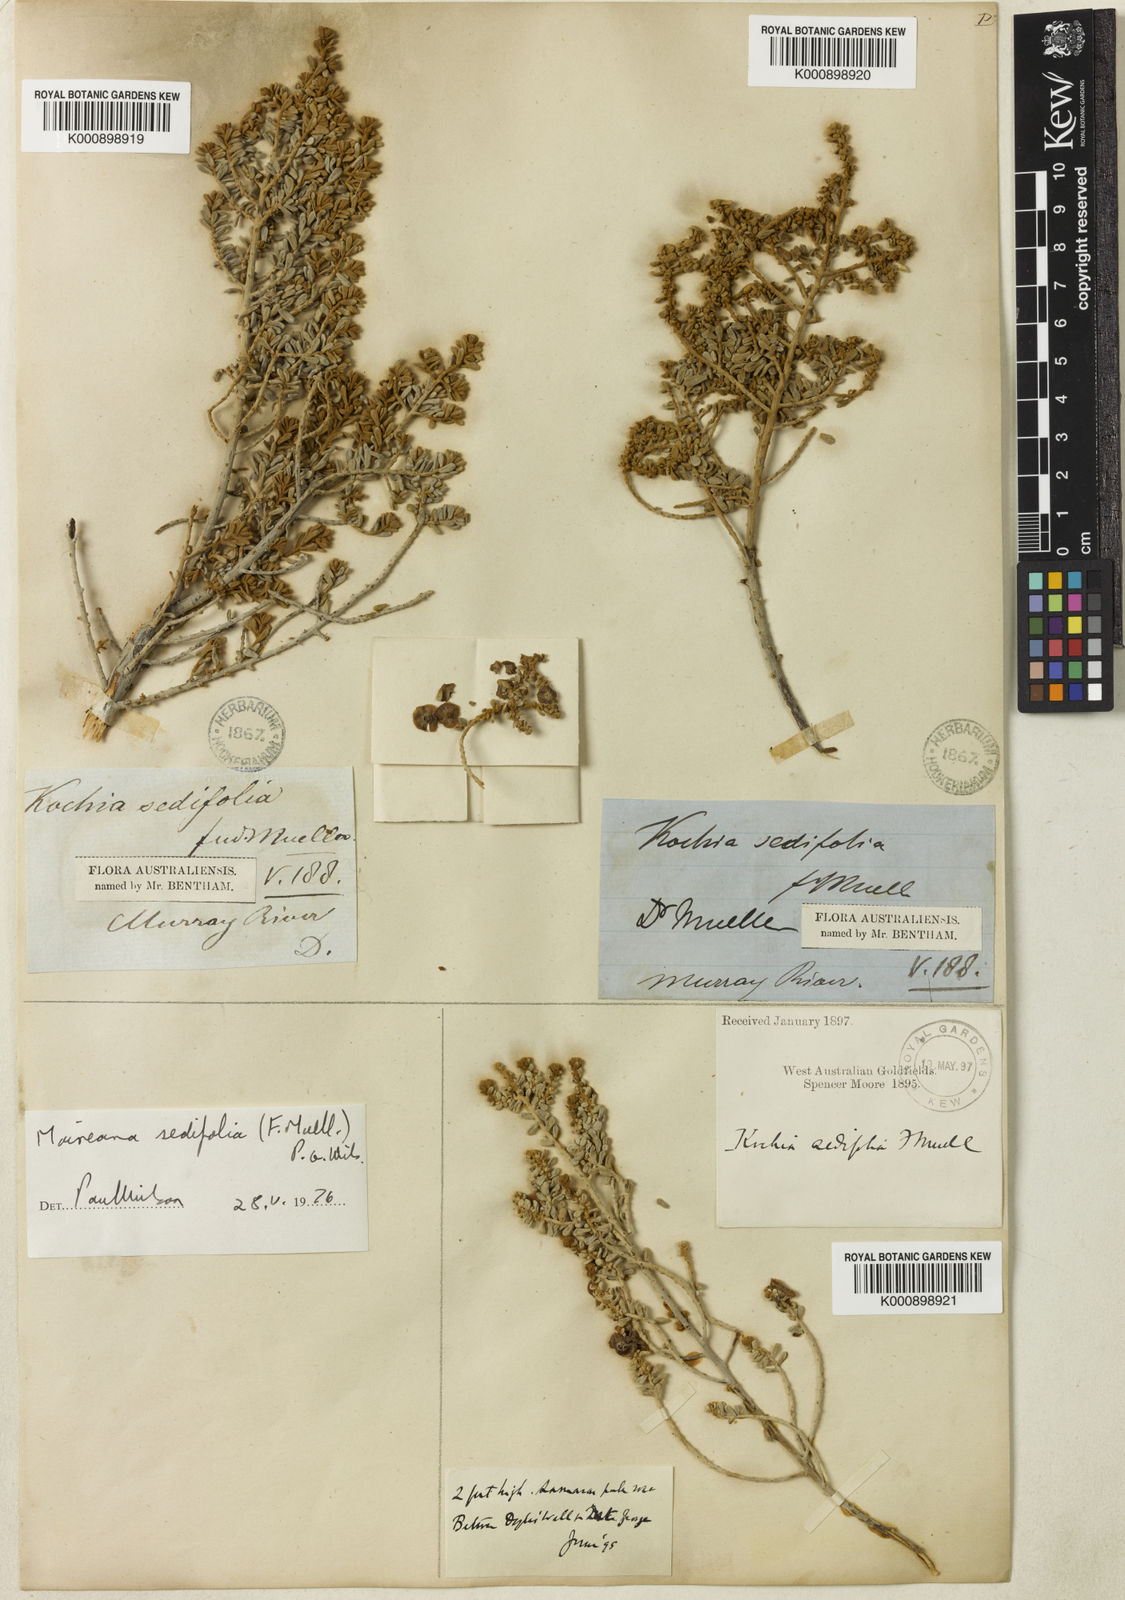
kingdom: Plantae
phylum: Tracheophyta
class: Magnoliopsida
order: Caryophyllales
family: Amaranthaceae
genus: Maireana
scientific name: Maireana sedifolia
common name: Hoary bluebush
